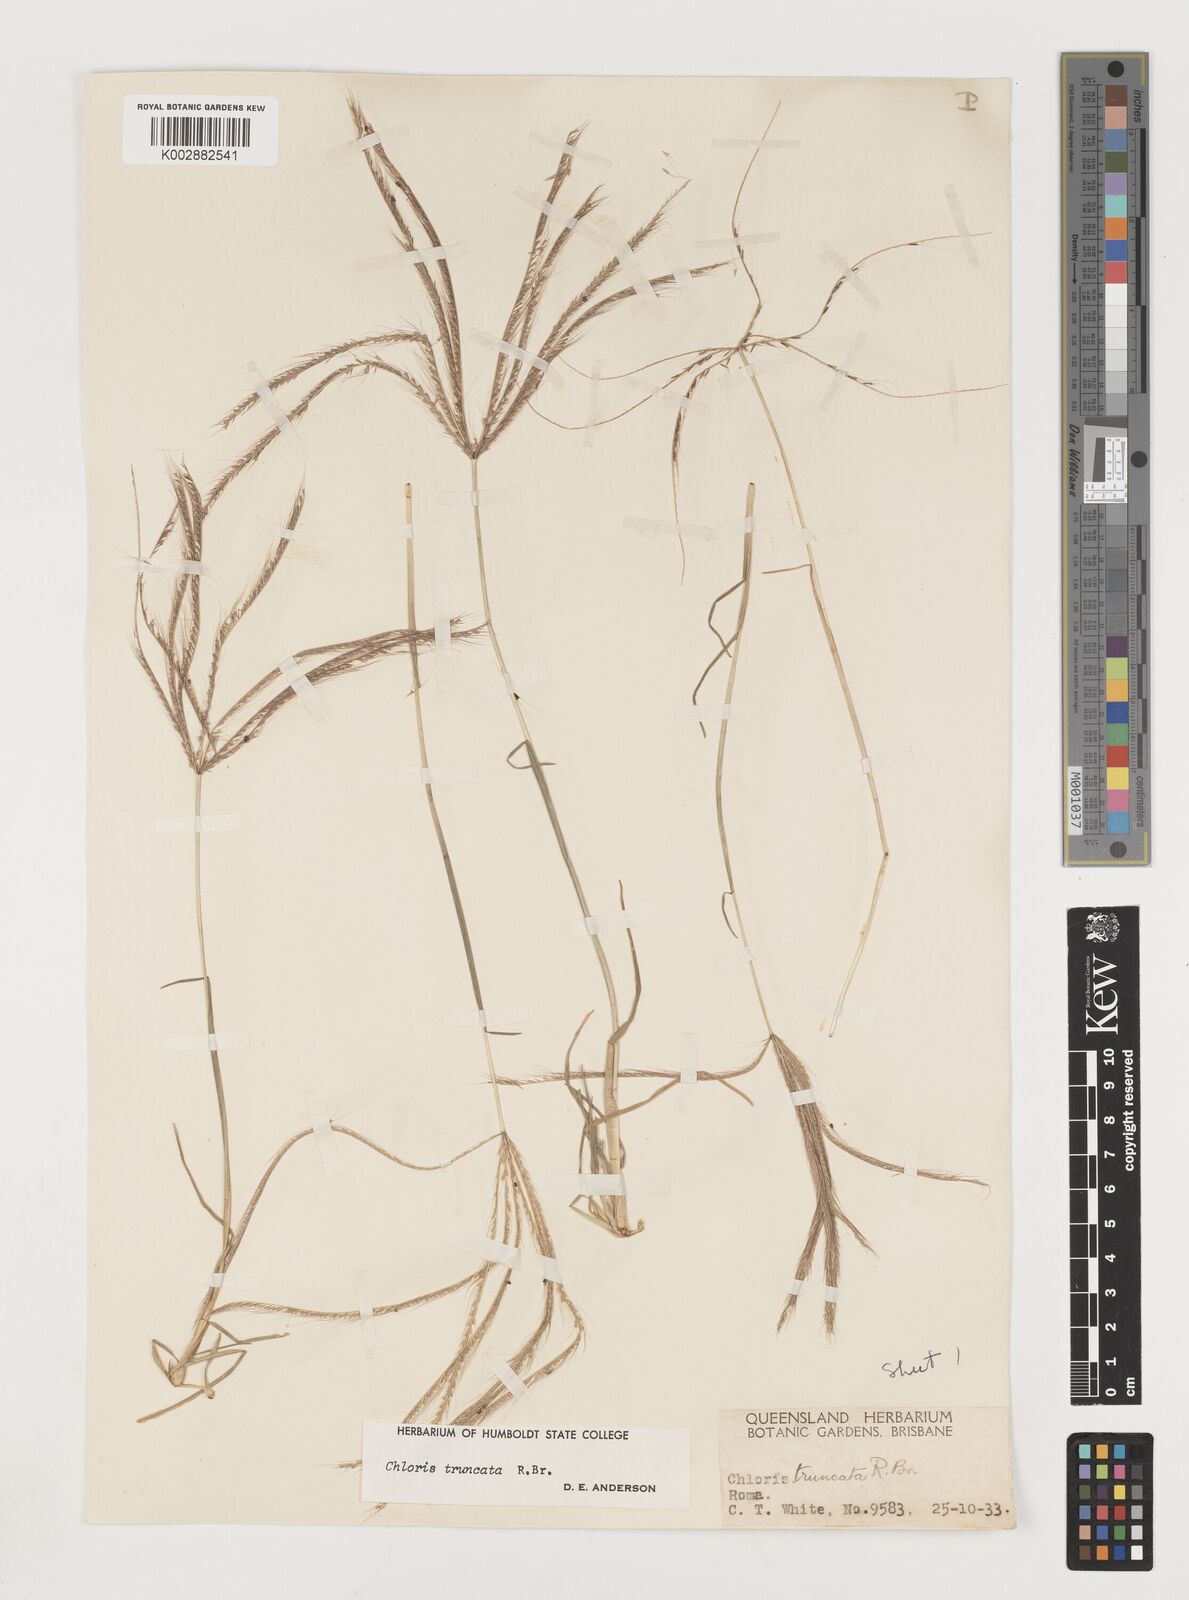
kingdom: Plantae
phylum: Tracheophyta
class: Liliopsida
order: Poales
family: Poaceae
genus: Chloris
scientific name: Chloris truncata
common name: Windmill-grass
